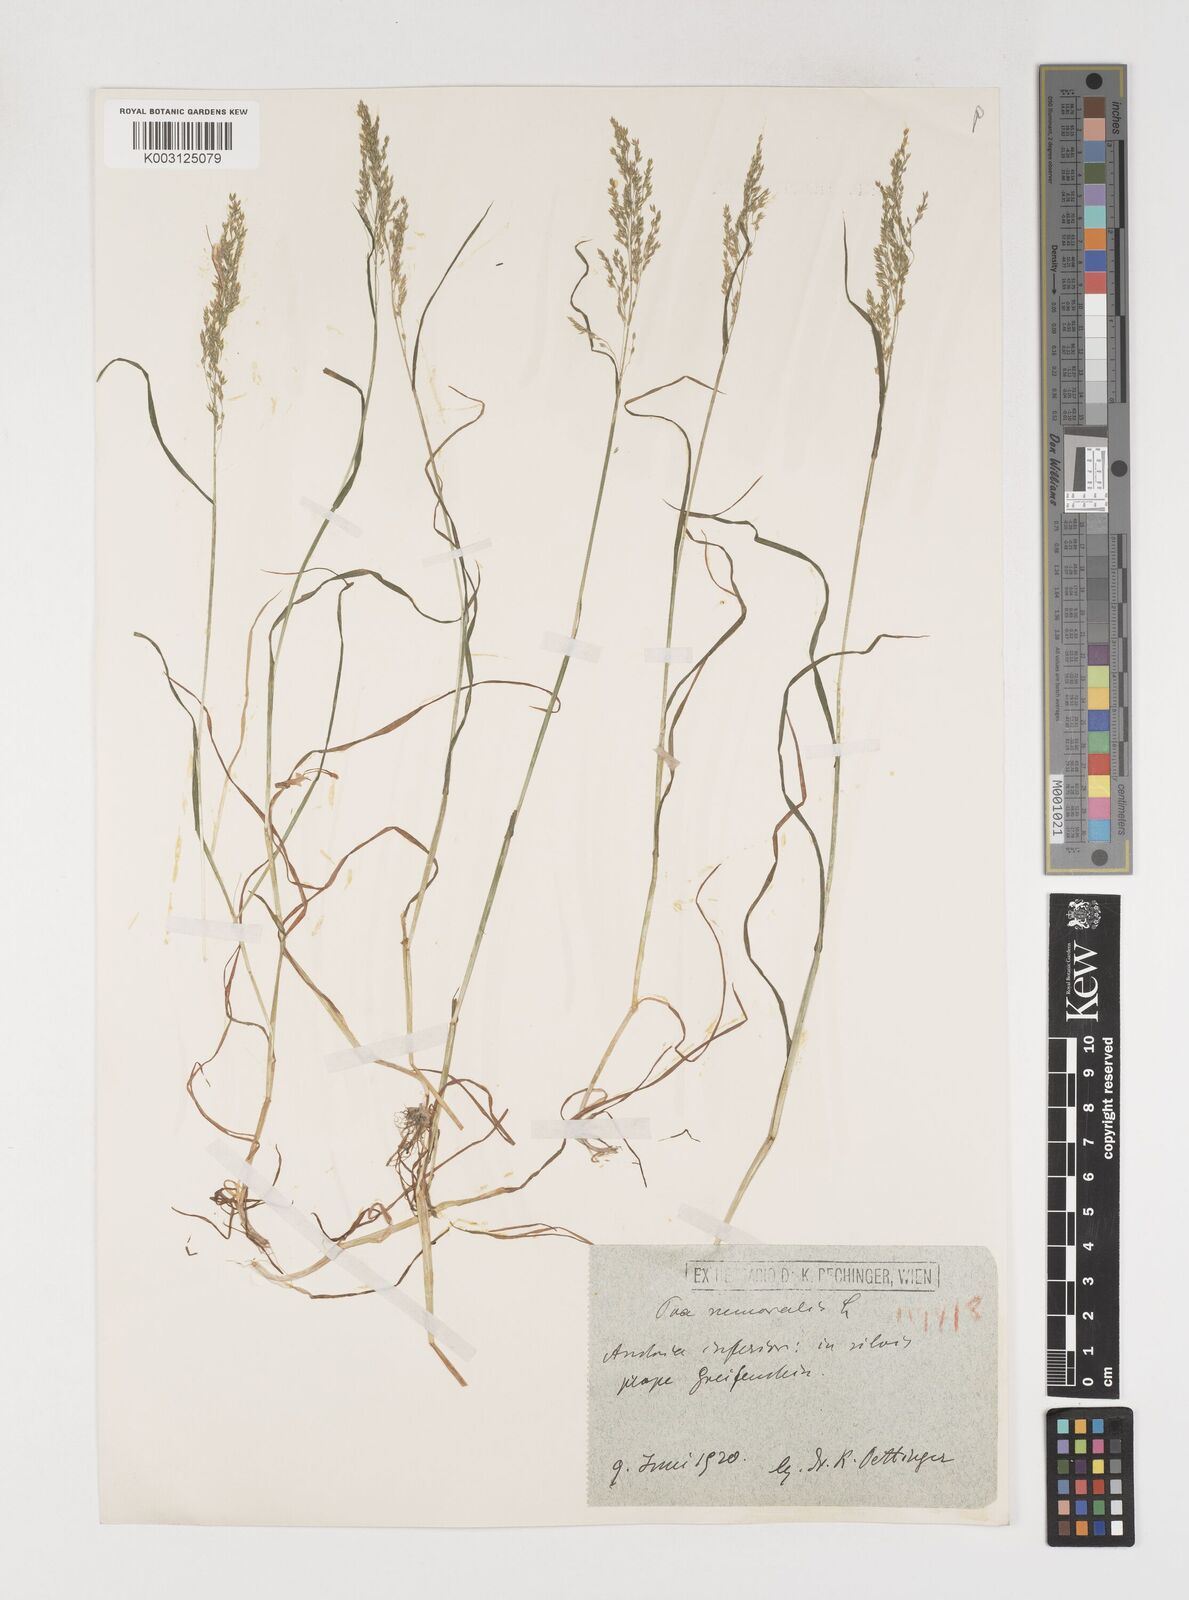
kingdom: Plantae
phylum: Tracheophyta
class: Liliopsida
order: Poales
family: Poaceae
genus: Poa
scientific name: Poa trivialis
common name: Rough bluegrass
